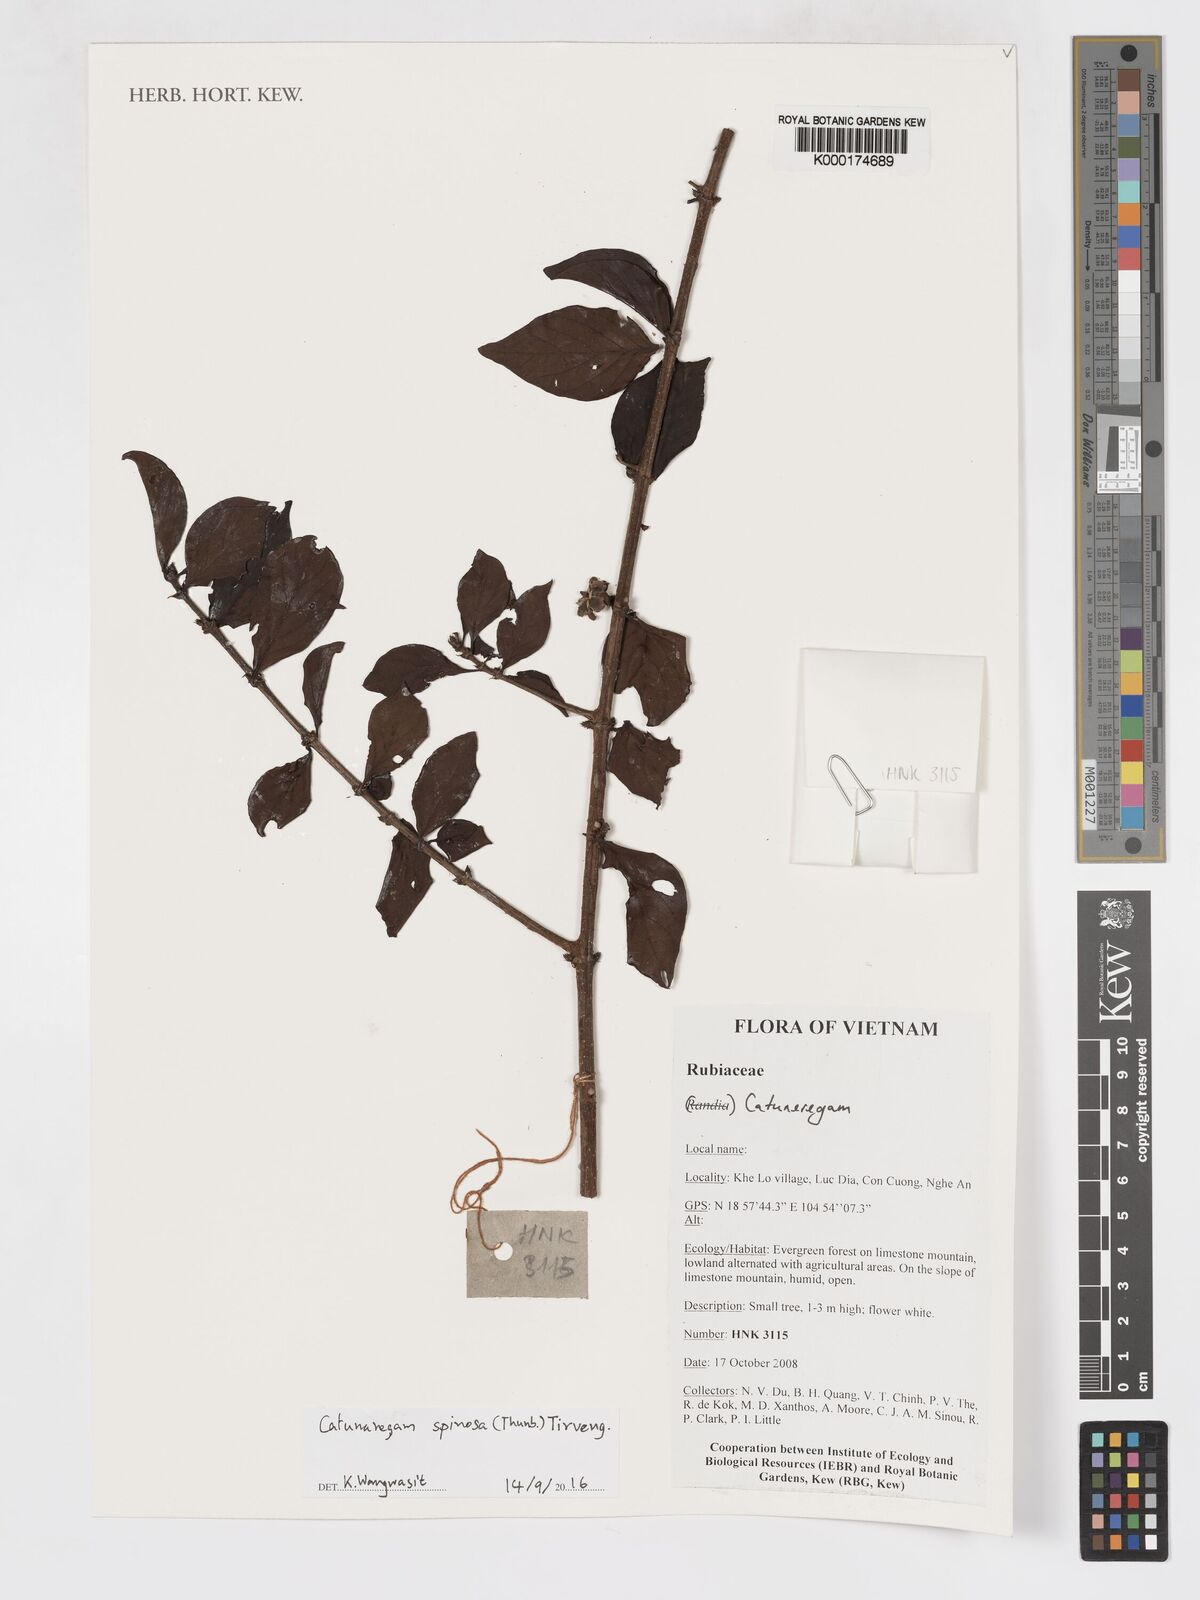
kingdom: Plantae
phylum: Tracheophyta
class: Magnoliopsida
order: Gentianales
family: Rubiaceae
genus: Catunaregam
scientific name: Catunaregam spinosa
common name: Emetic-nut
